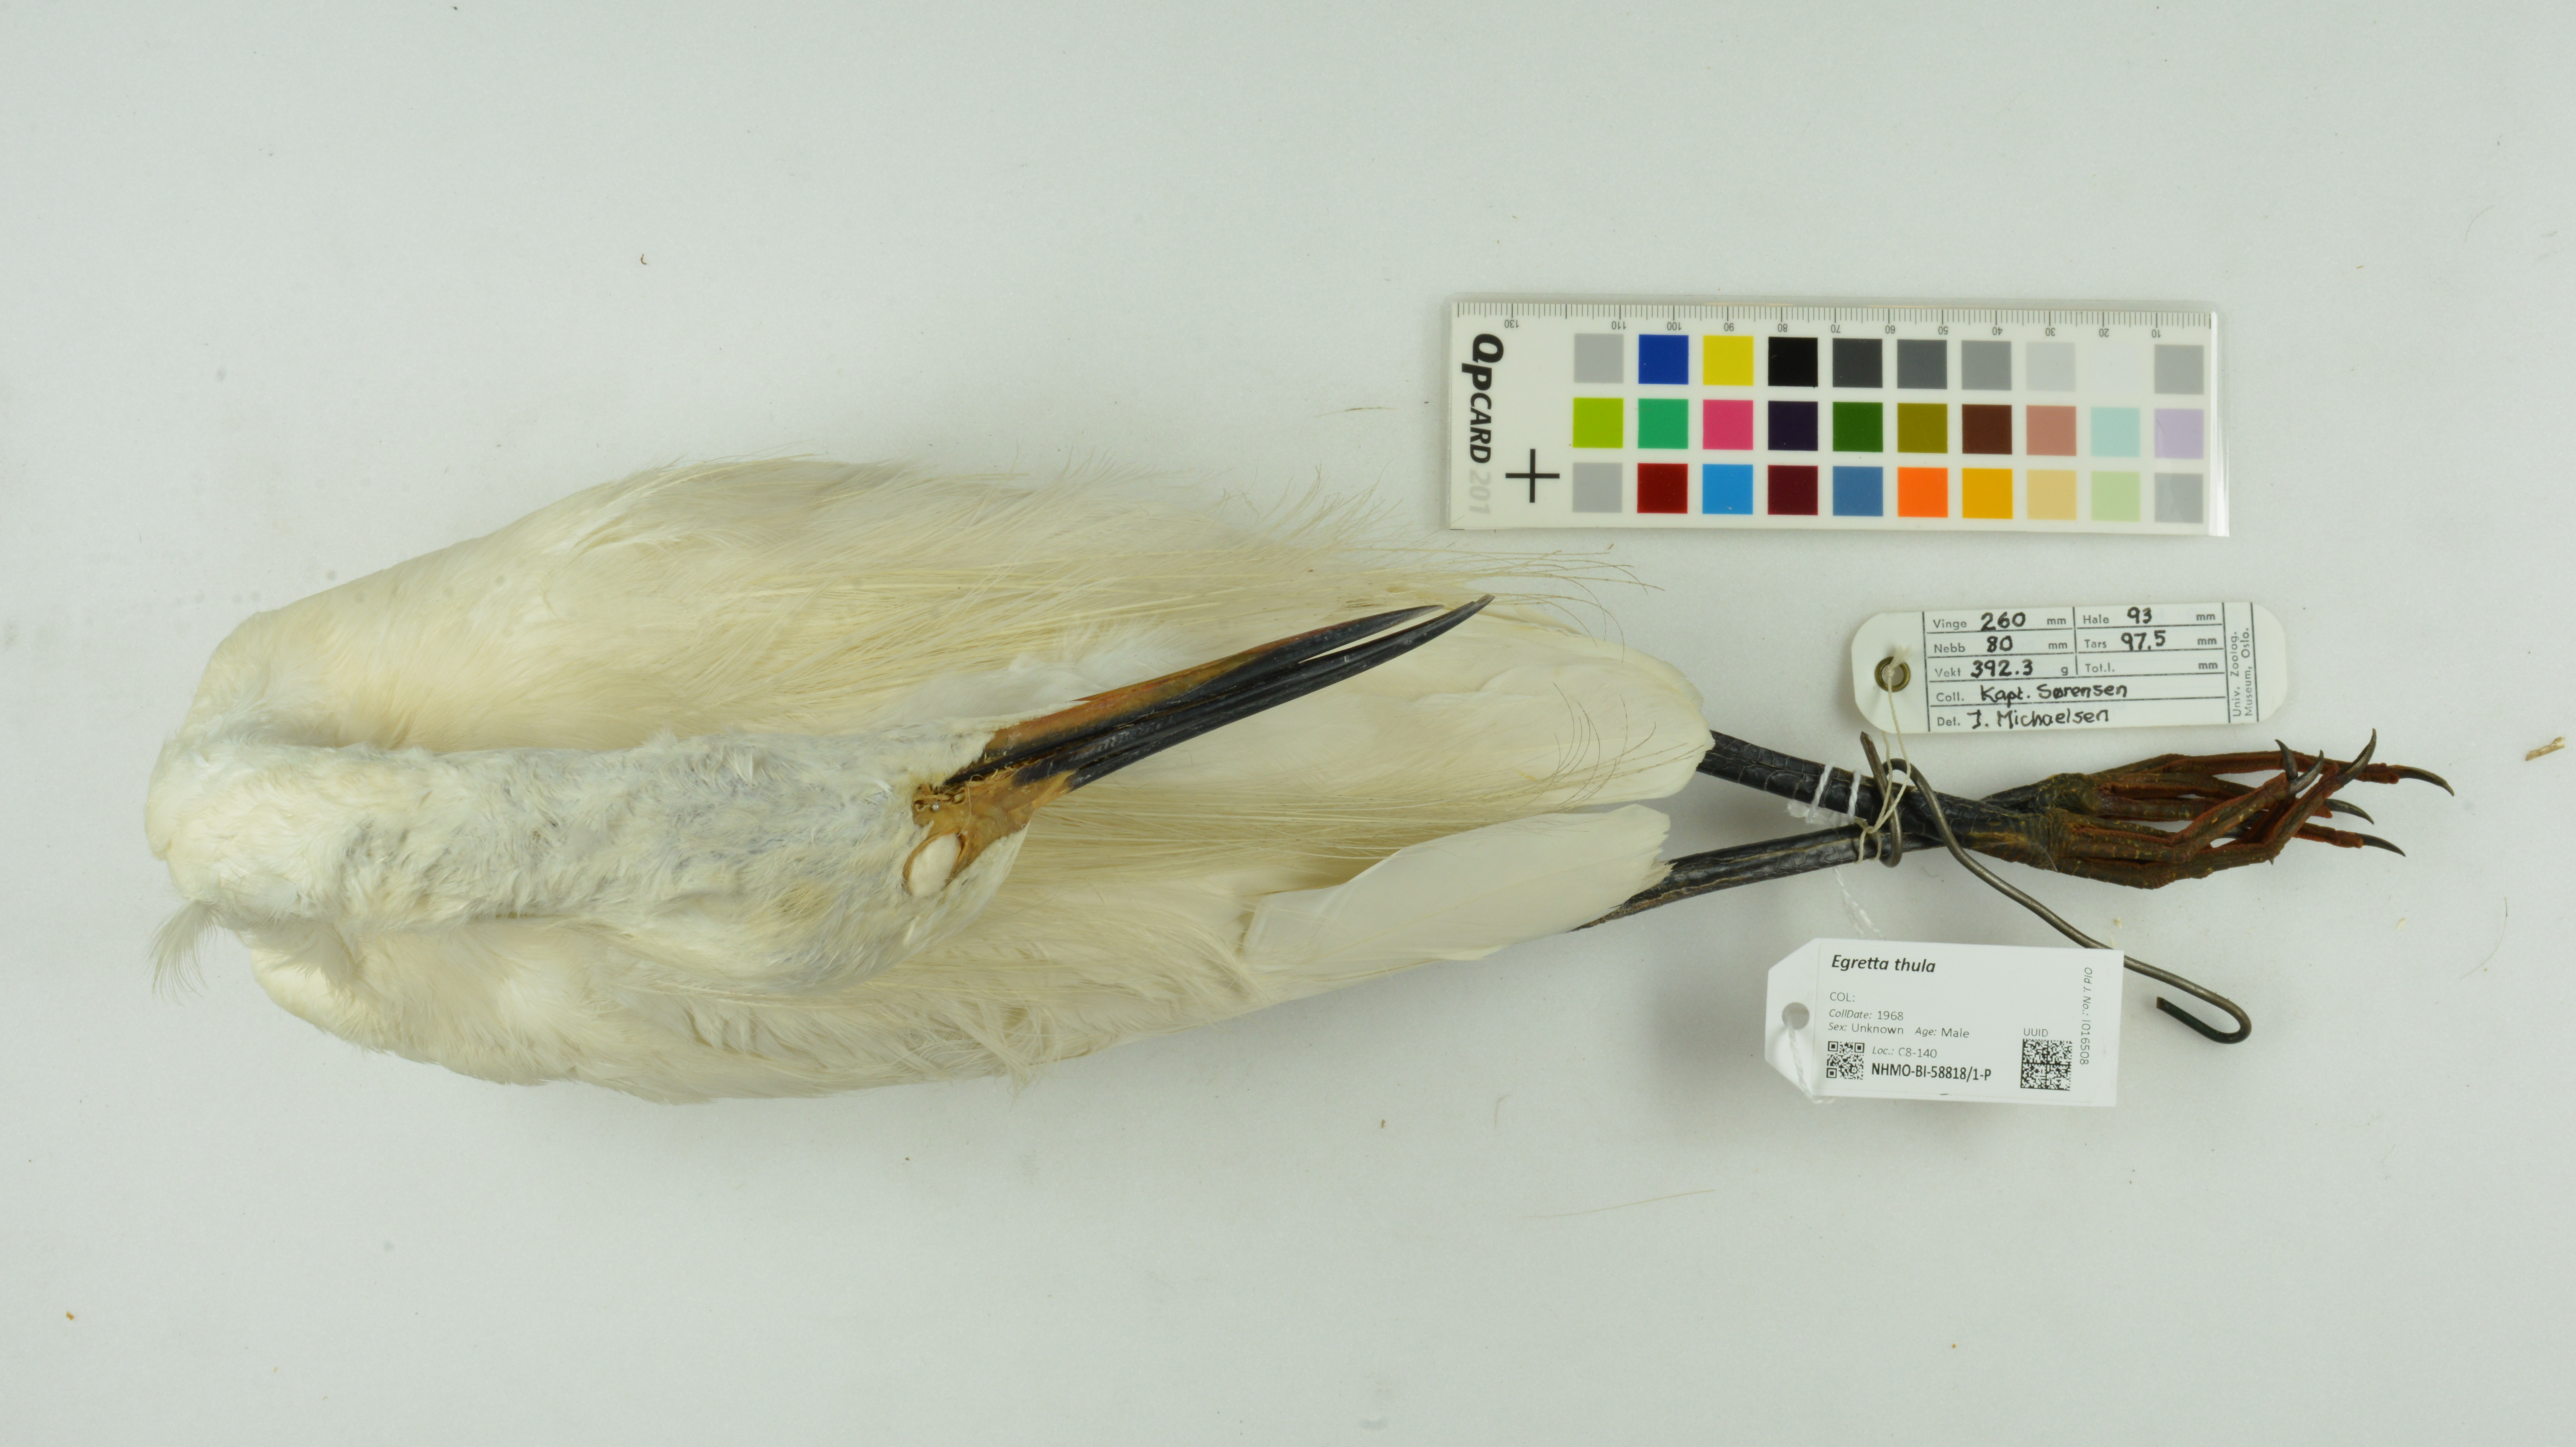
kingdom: Animalia
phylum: Chordata
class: Aves
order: Pelecaniformes
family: Ardeidae
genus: Egretta
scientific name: Egretta thula
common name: Snowy egret
